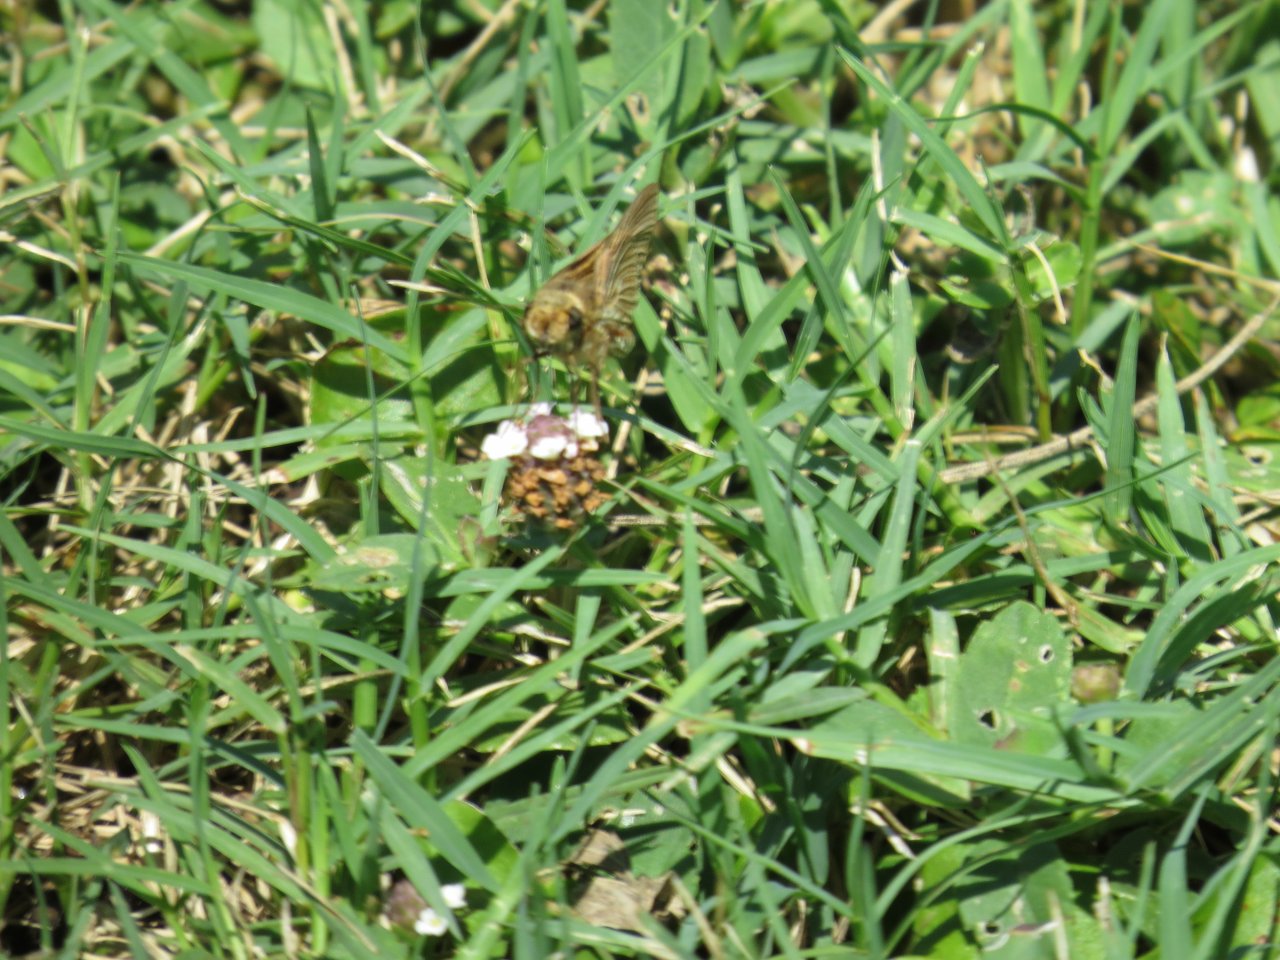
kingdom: Animalia
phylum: Arthropoda
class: Insecta
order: Lepidoptera
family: Hesperiidae
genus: Hylephila
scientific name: Hylephila phyleus
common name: Fiery Skipper
